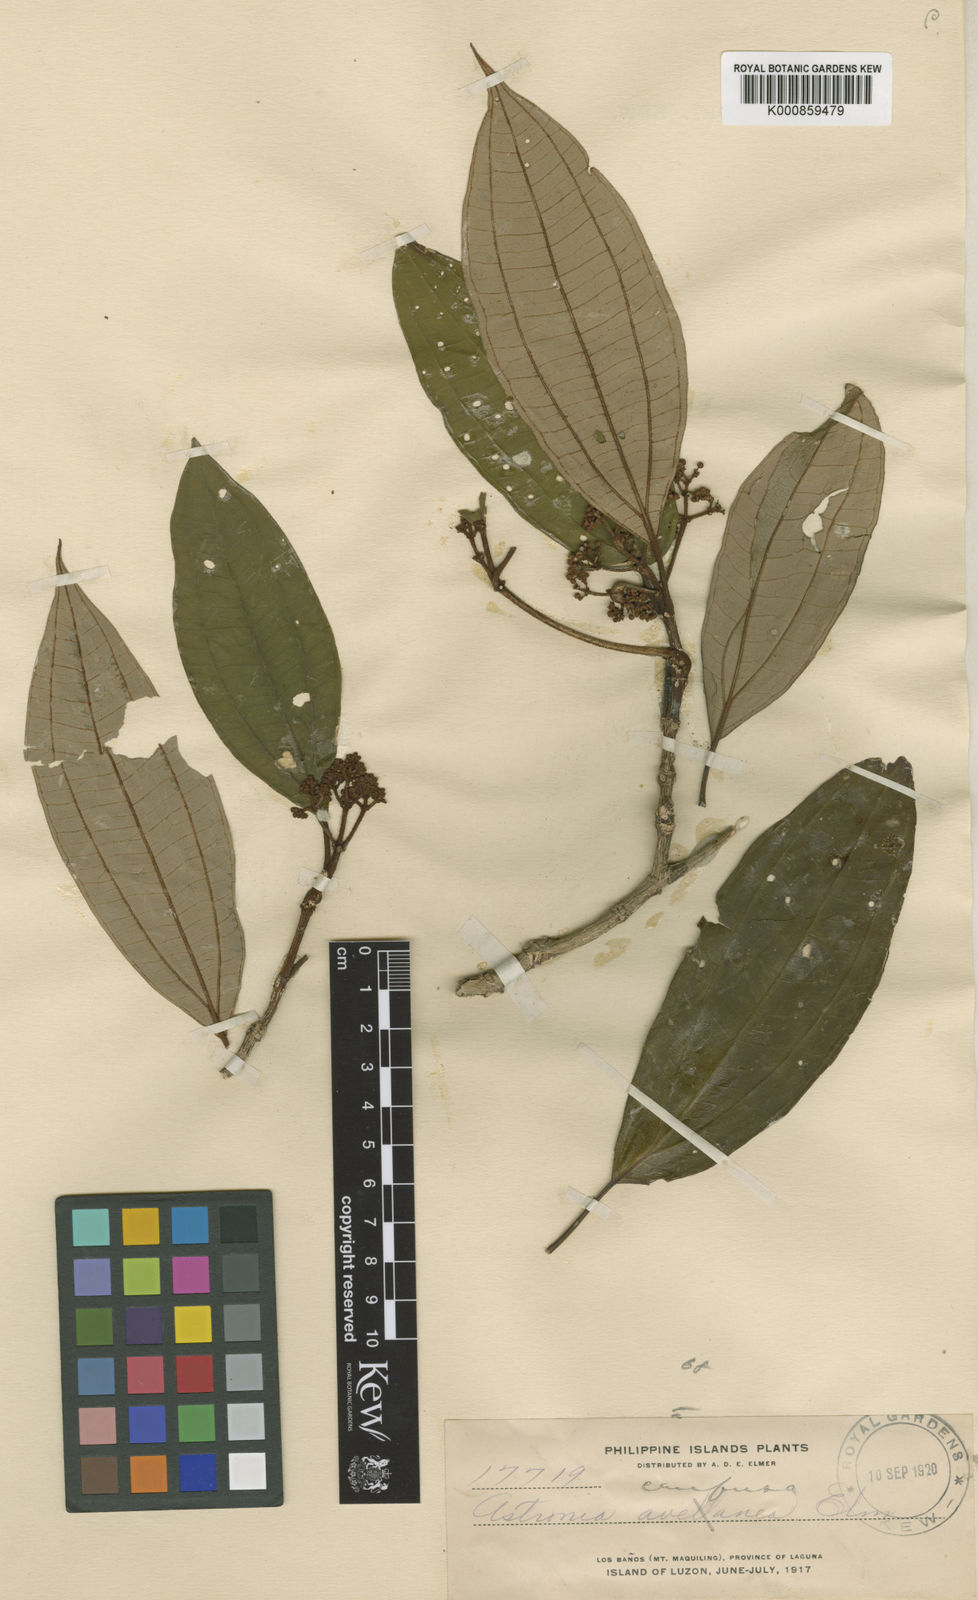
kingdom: Plantae
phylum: Tracheophyta
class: Magnoliopsida
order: Myrtales
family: Melastomataceae
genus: Astronia
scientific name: Astronia williamsii
